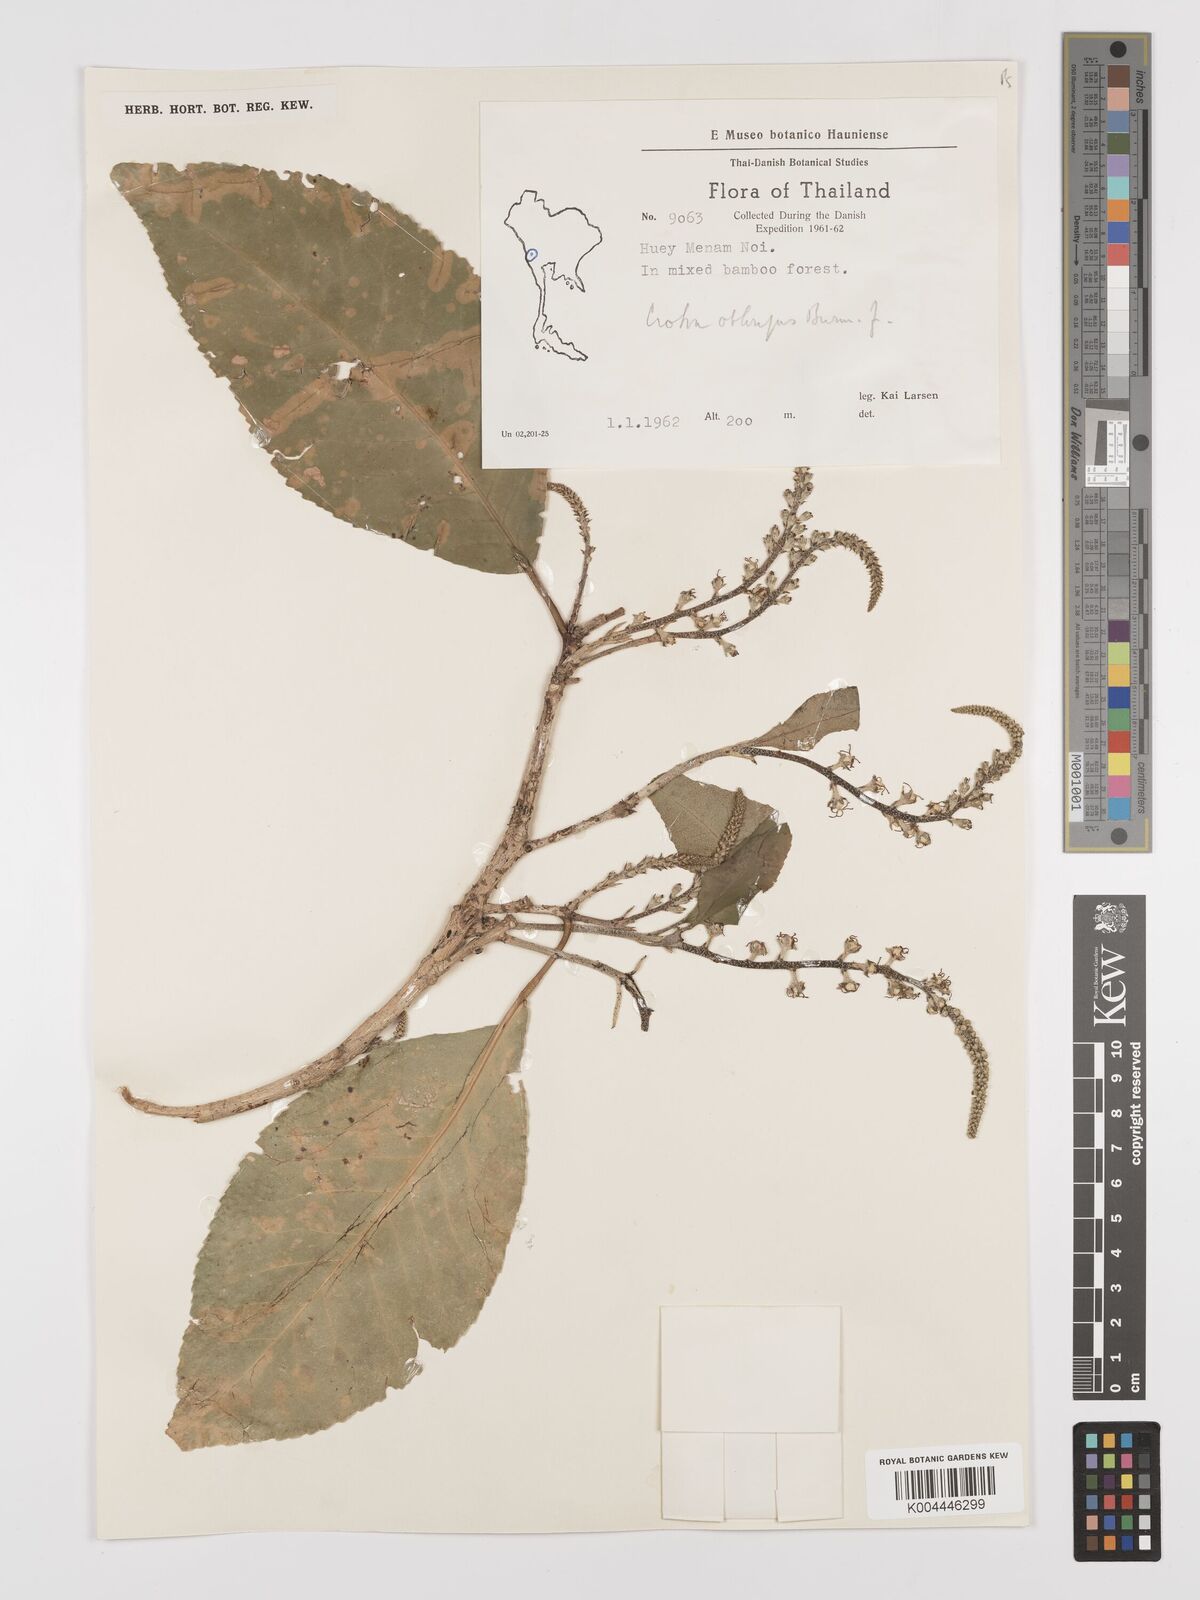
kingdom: Plantae
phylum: Tracheophyta
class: Magnoliopsida
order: Malpighiales
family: Euphorbiaceae
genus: Croton
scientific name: Croton
